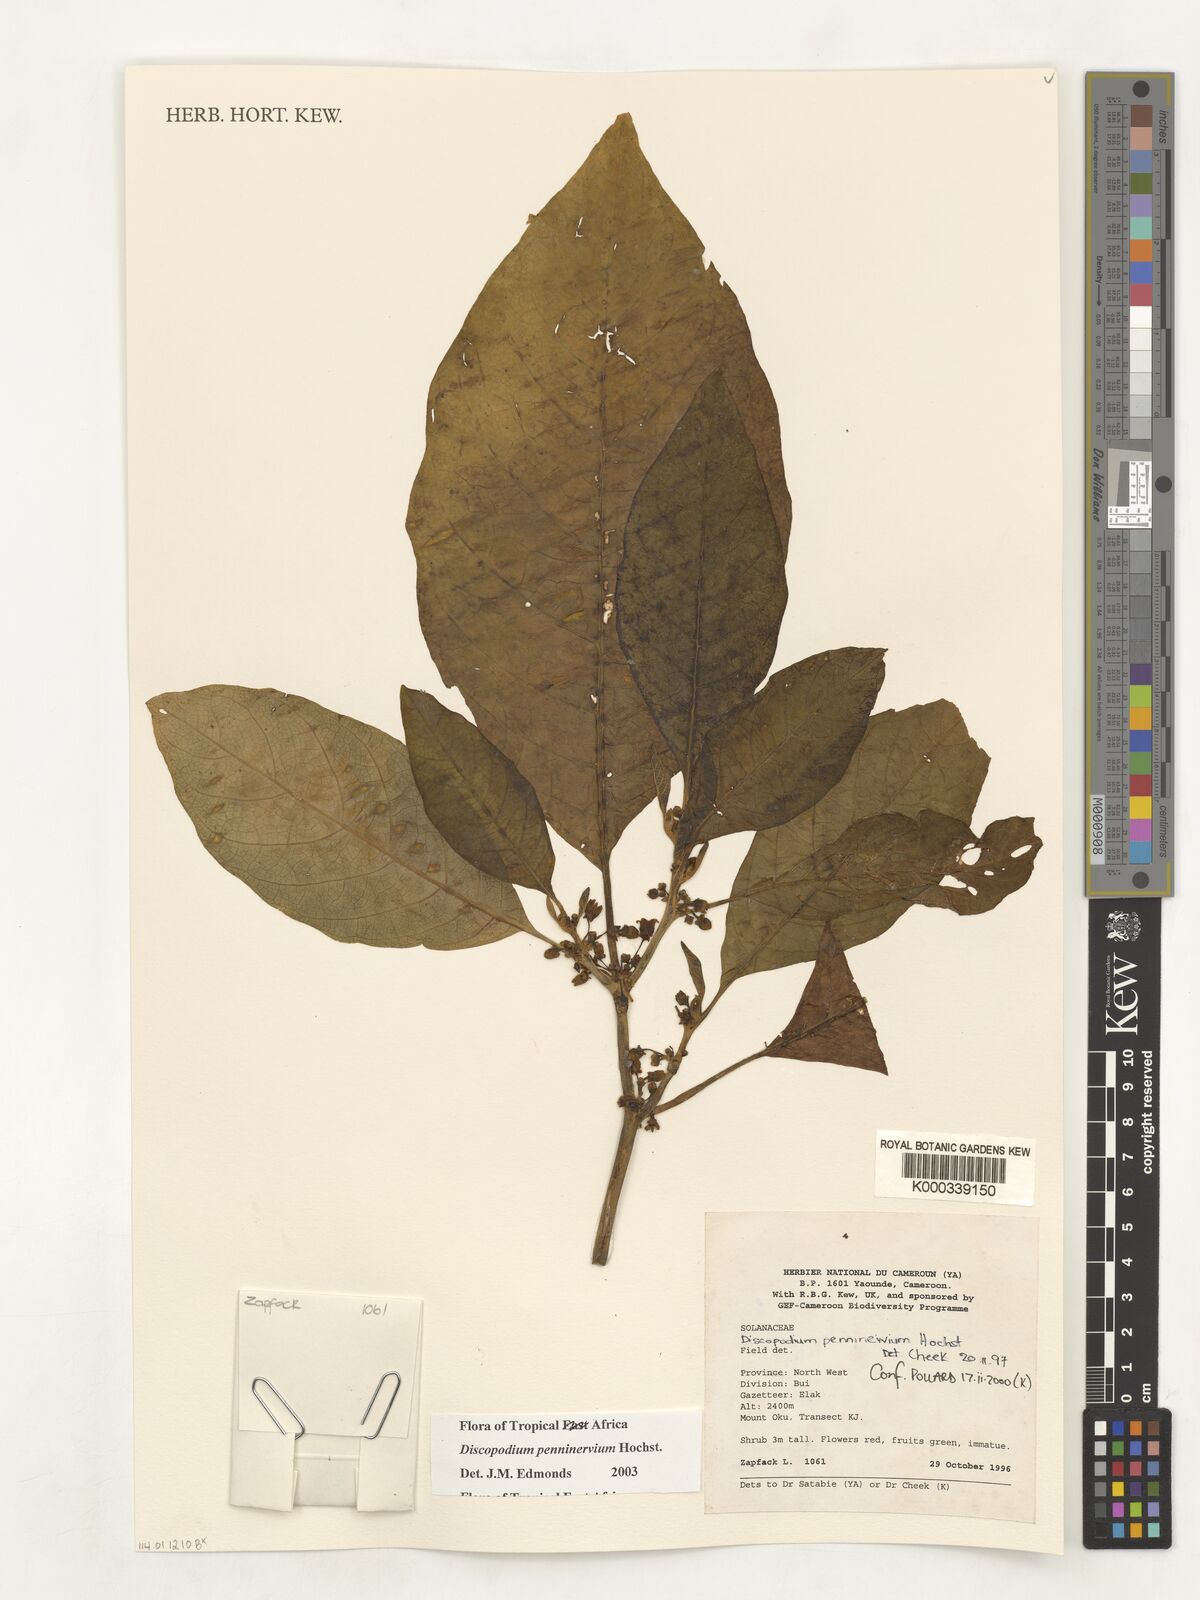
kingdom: Plantae
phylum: Tracheophyta
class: Magnoliopsida
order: Solanales
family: Solanaceae
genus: Discopodium
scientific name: Discopodium penninervium
